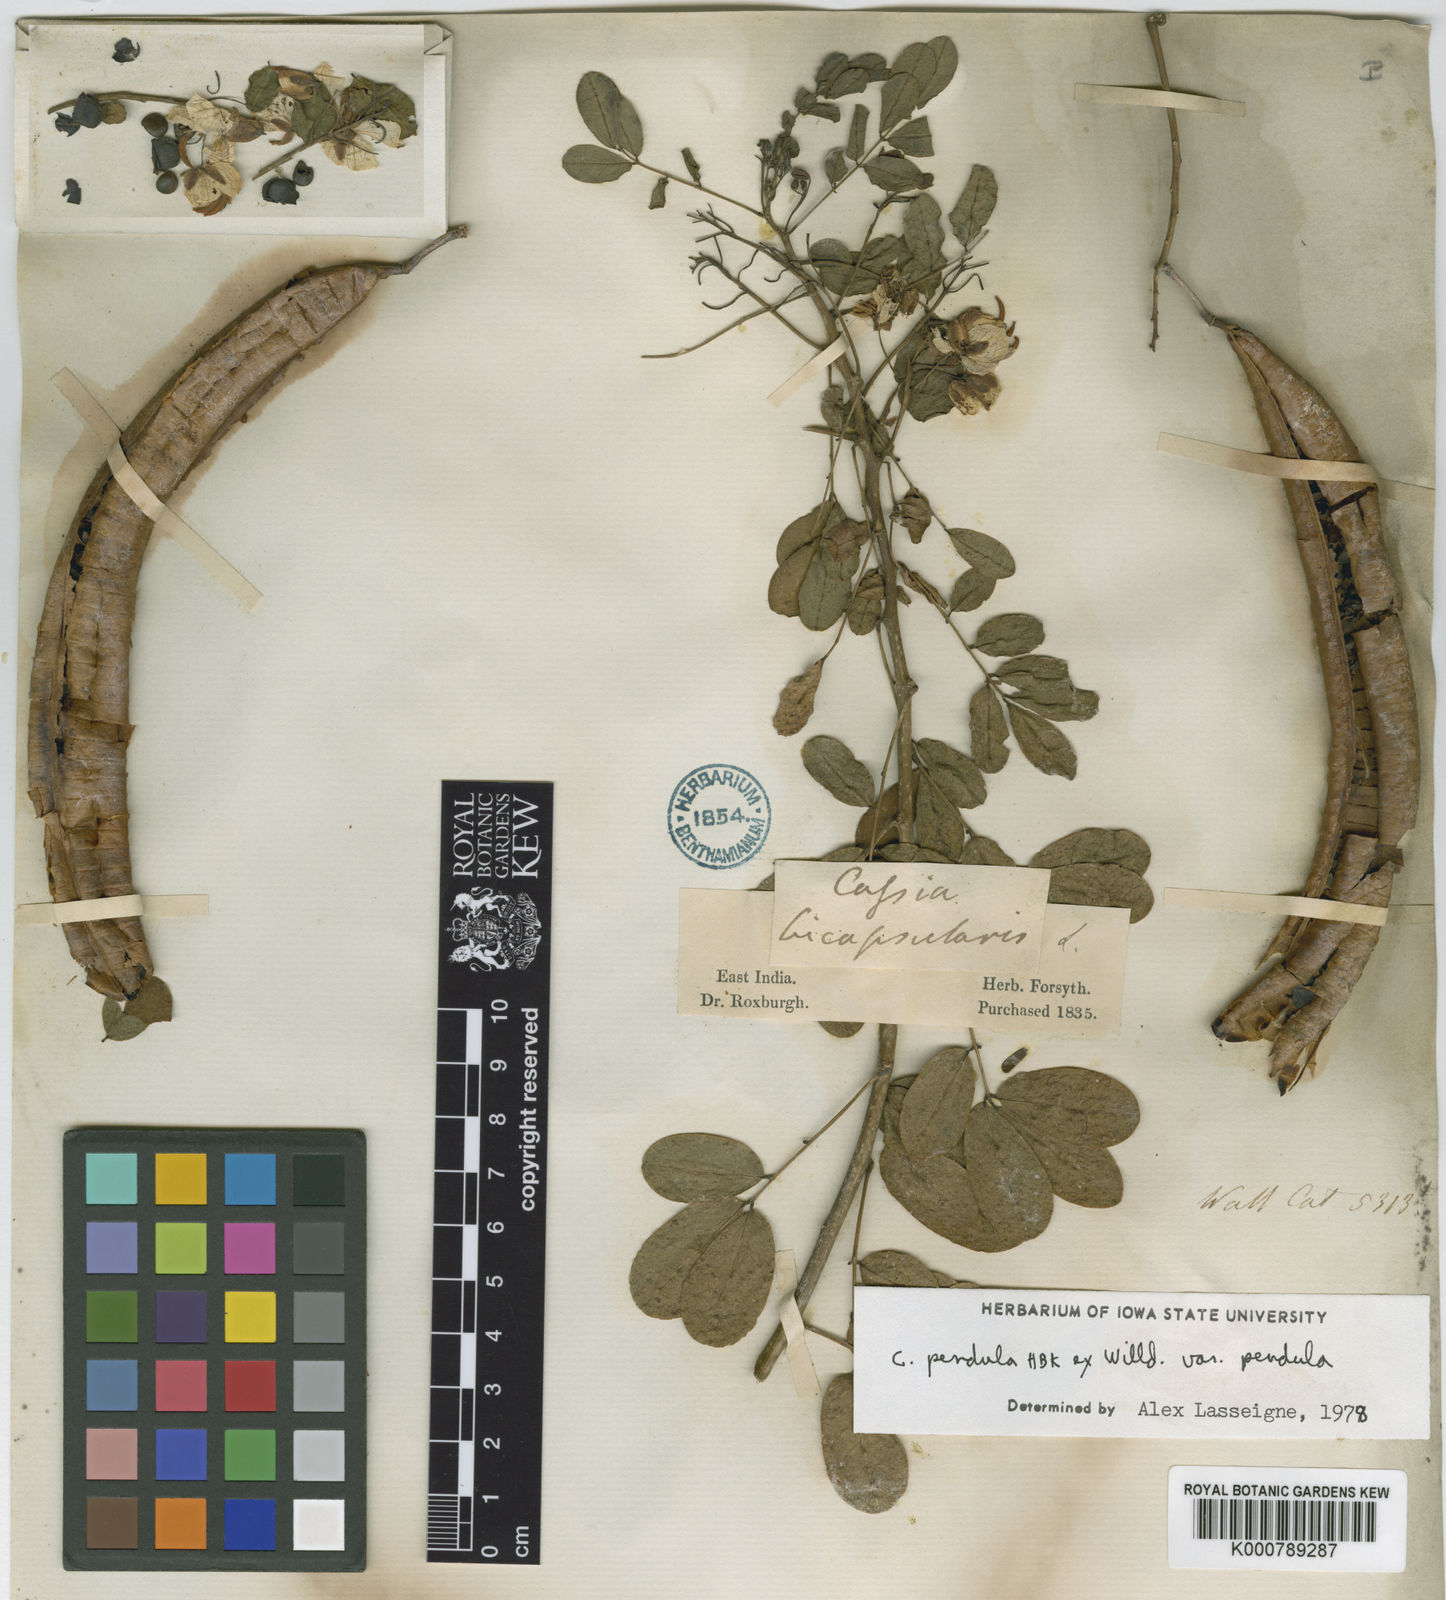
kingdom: Plantae
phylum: Tracheophyta
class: Magnoliopsida
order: Fabales
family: Fabaceae
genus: Senna
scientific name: Senna pendula
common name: Easter cassia
